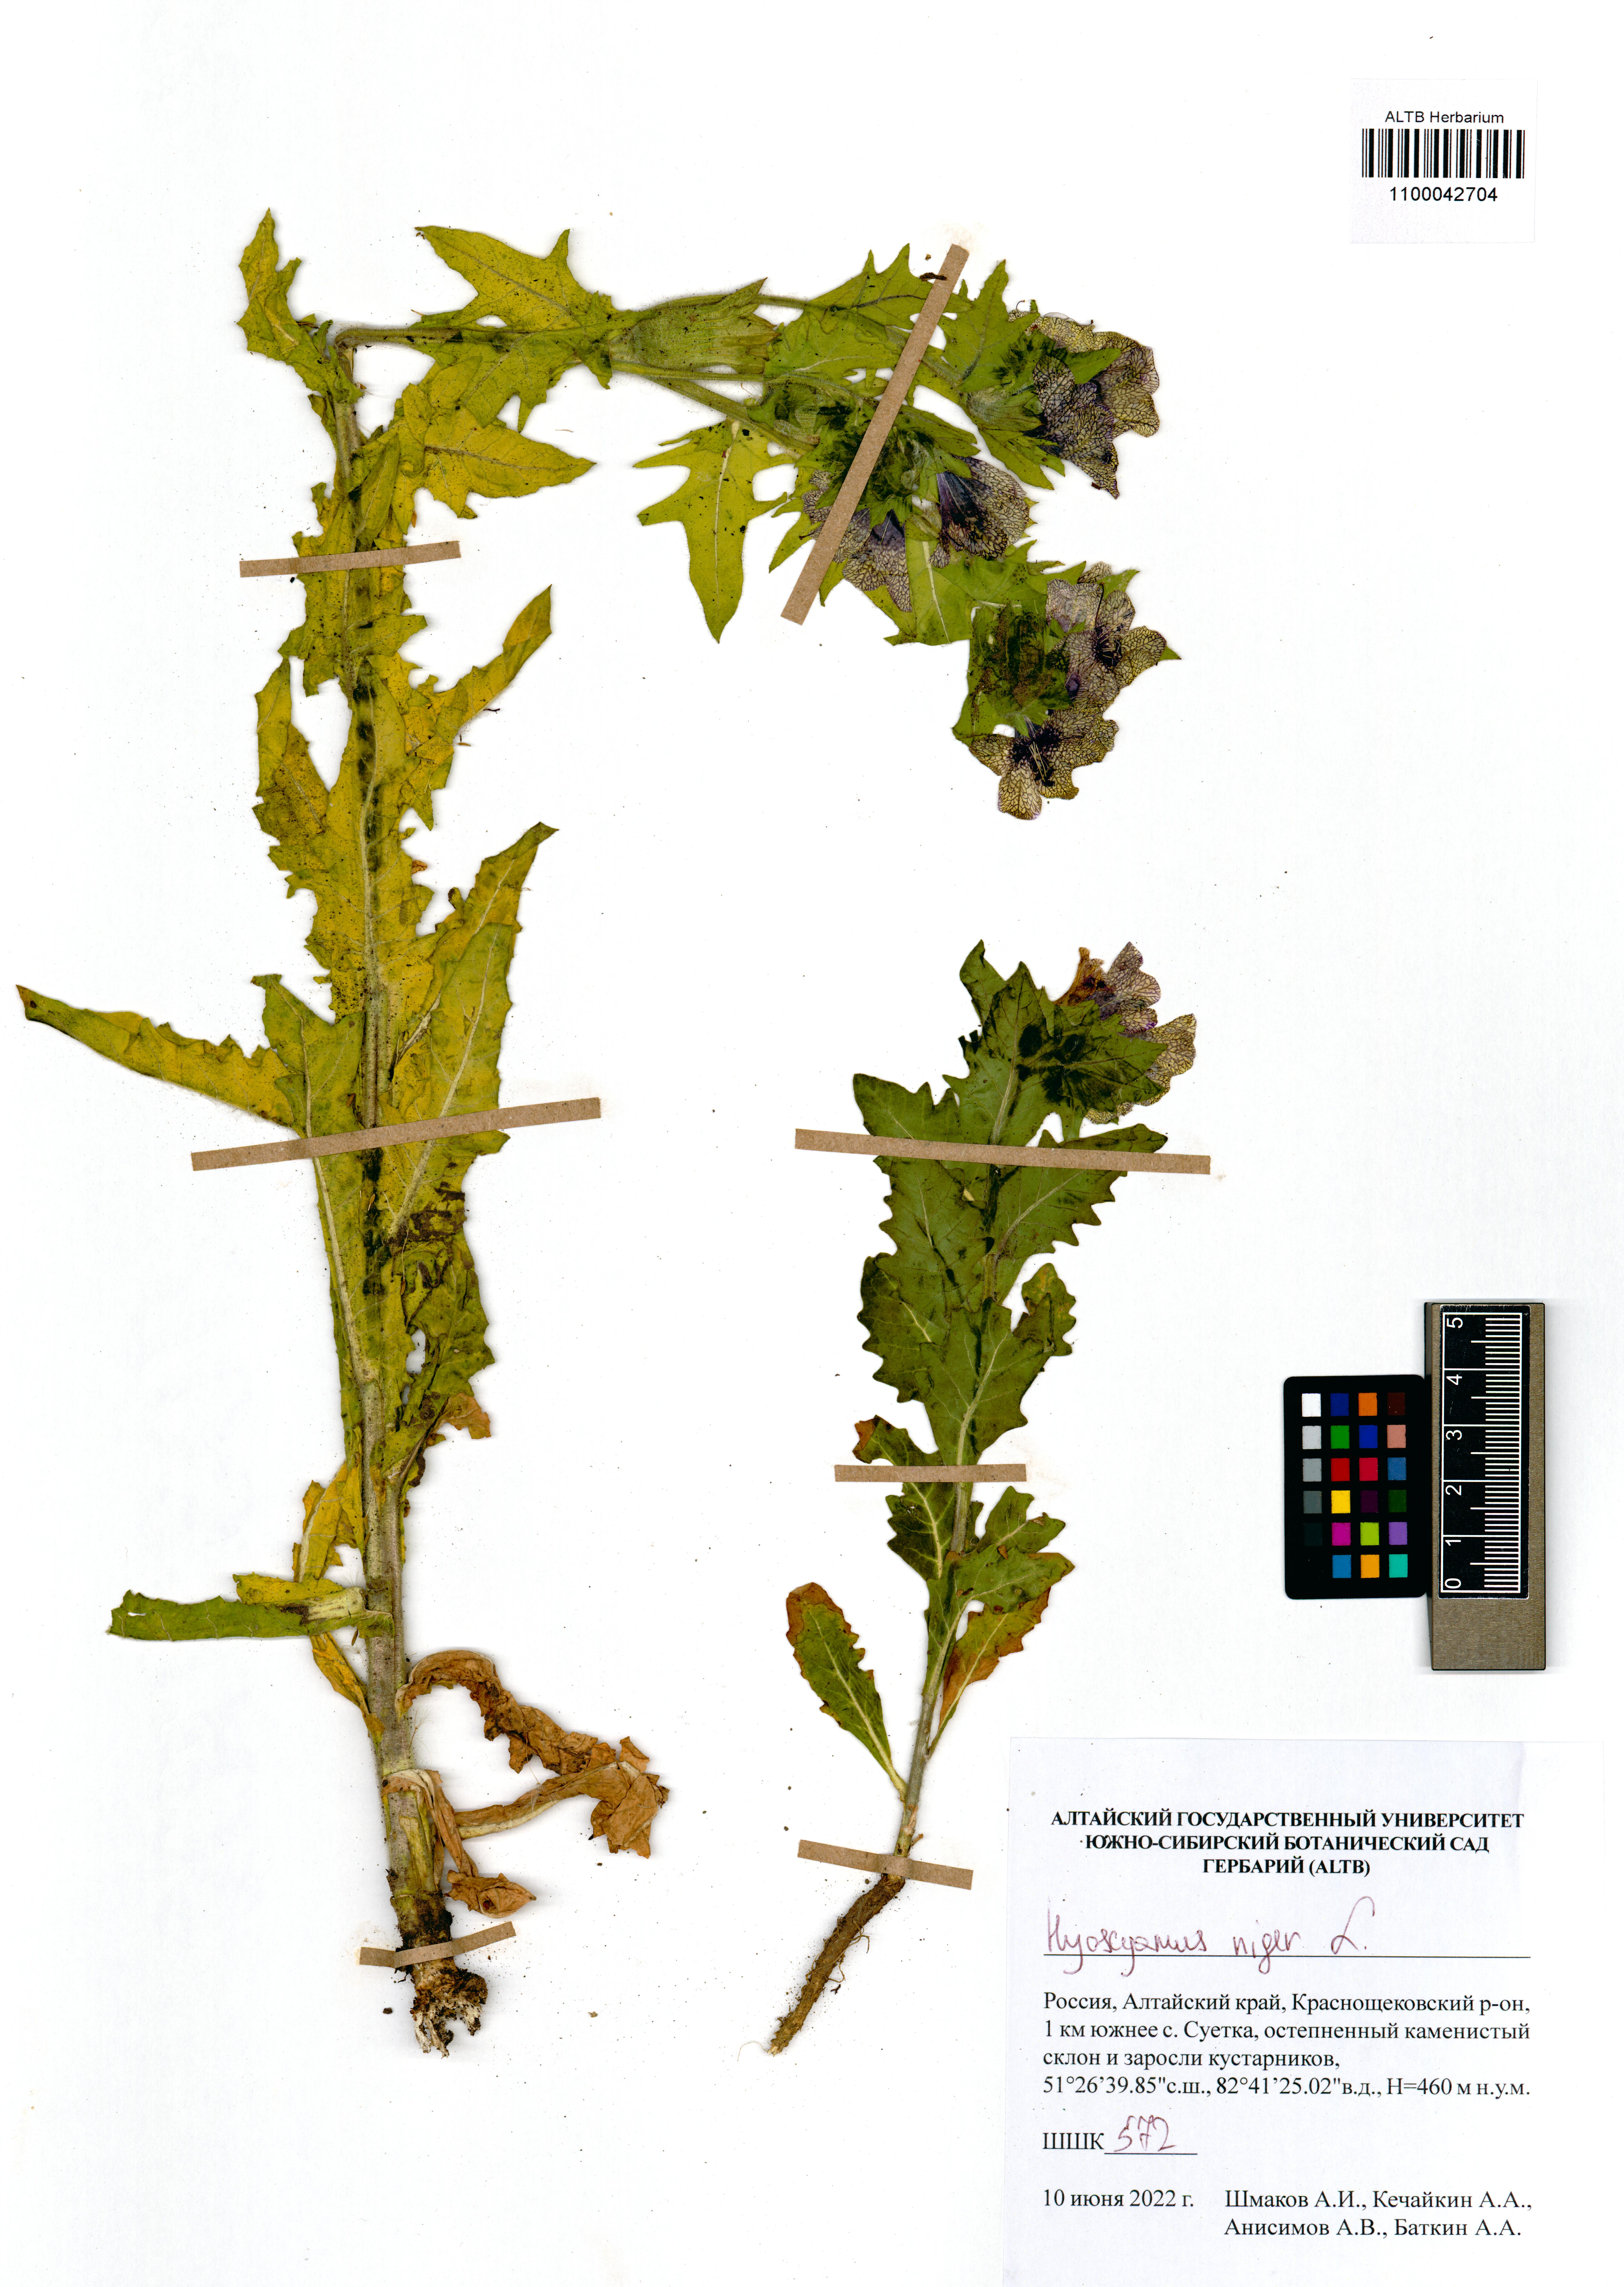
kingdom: Plantae
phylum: Tracheophyta
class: Magnoliopsida
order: Solanales
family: Solanaceae
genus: Hyoscyamus
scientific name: Hyoscyamus niger
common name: Henbane
